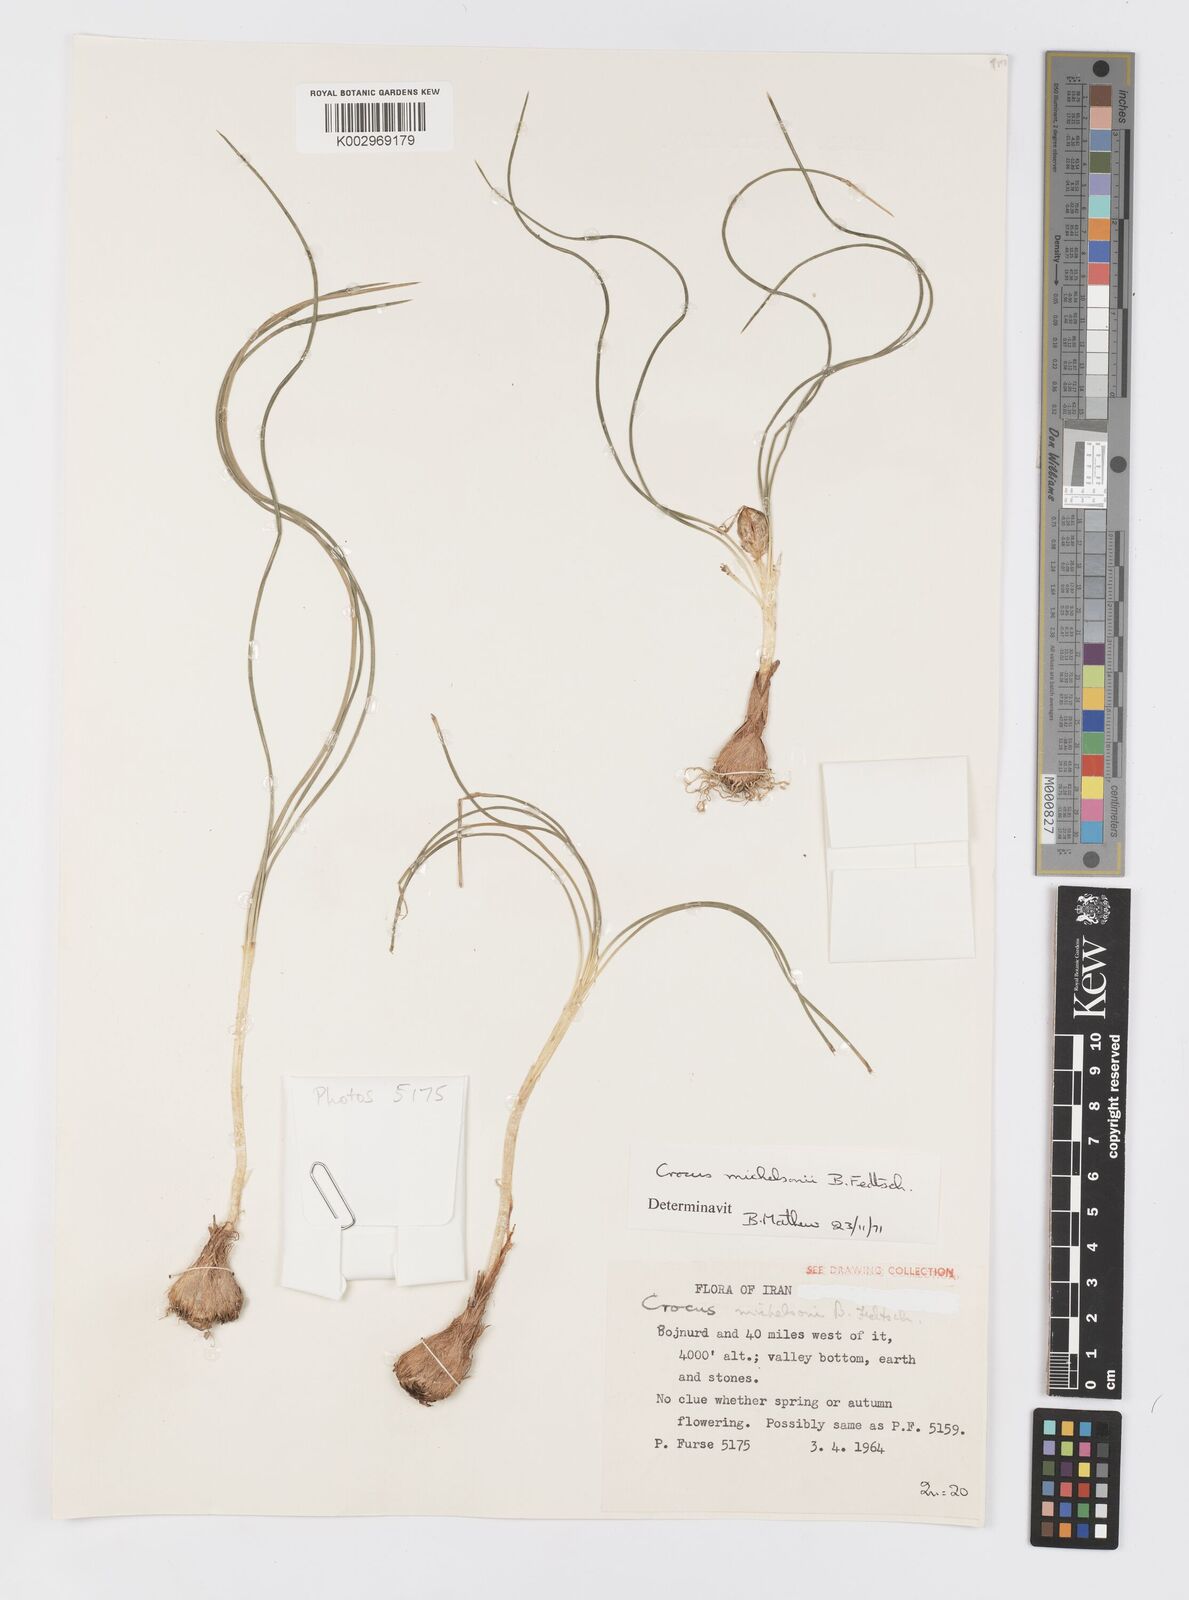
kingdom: Plantae
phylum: Tracheophyta
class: Liliopsida
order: Asparagales
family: Iridaceae
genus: Crocus
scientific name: Crocus michelsonii
